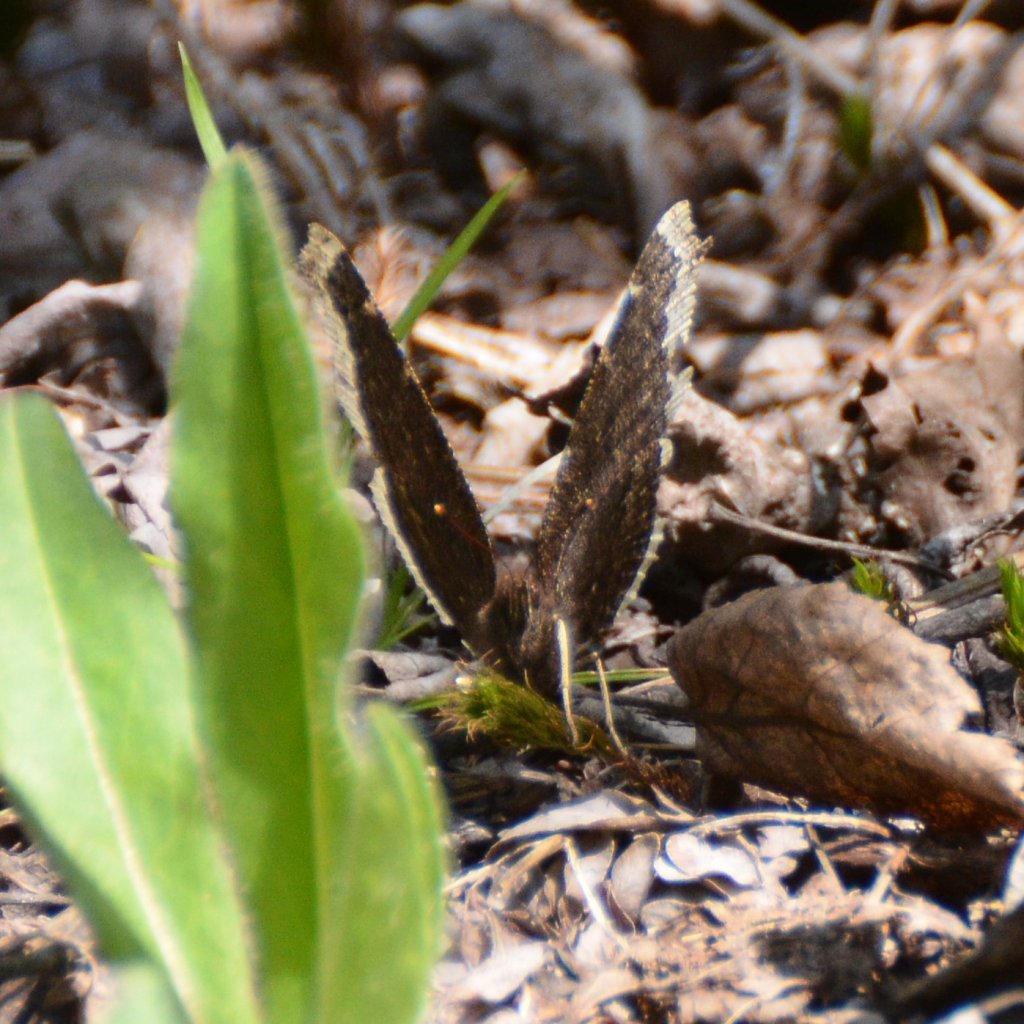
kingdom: Animalia
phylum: Arthropoda
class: Insecta
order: Lepidoptera
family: Nymphalidae
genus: Nymphalis
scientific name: Nymphalis antiopa
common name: Mourning Cloak
